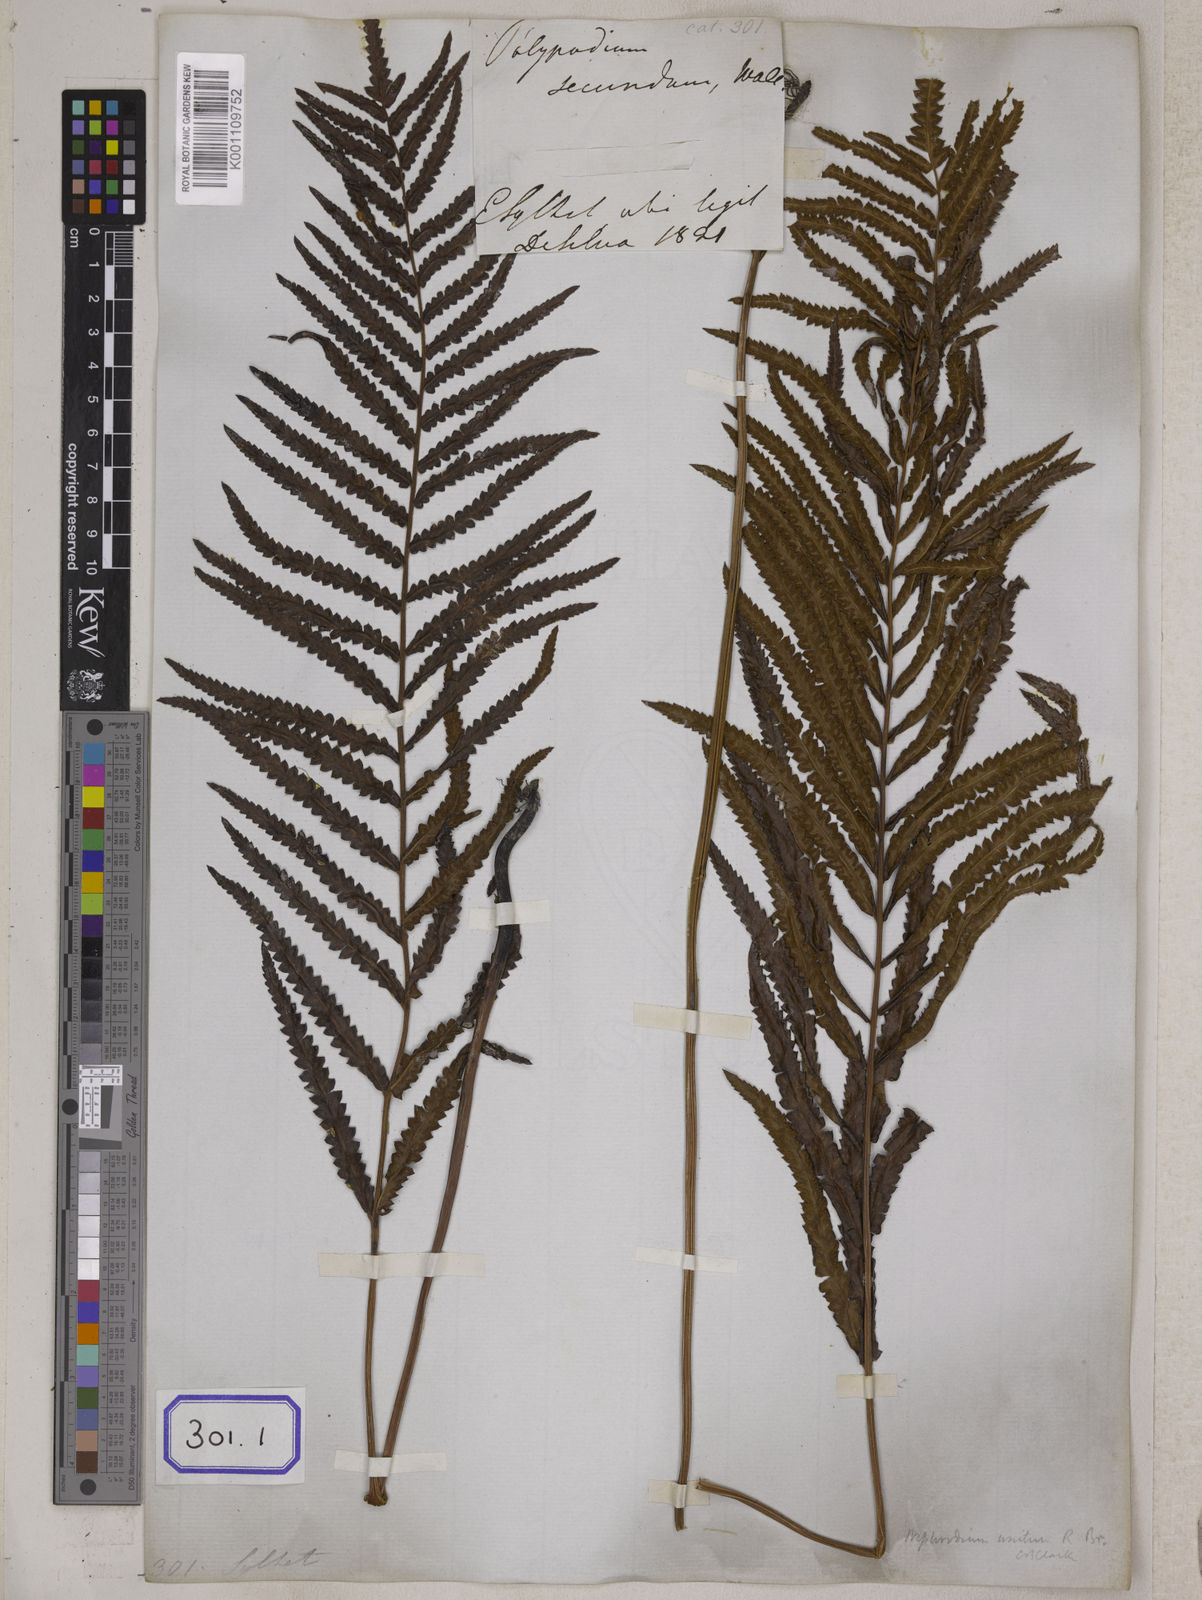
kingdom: Plantae
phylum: Tracheophyta
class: Polypodiopsida
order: Polypodiales
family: Thelypteridaceae
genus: Cyclosorus
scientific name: Cyclosorus interruptus
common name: Neke fern
